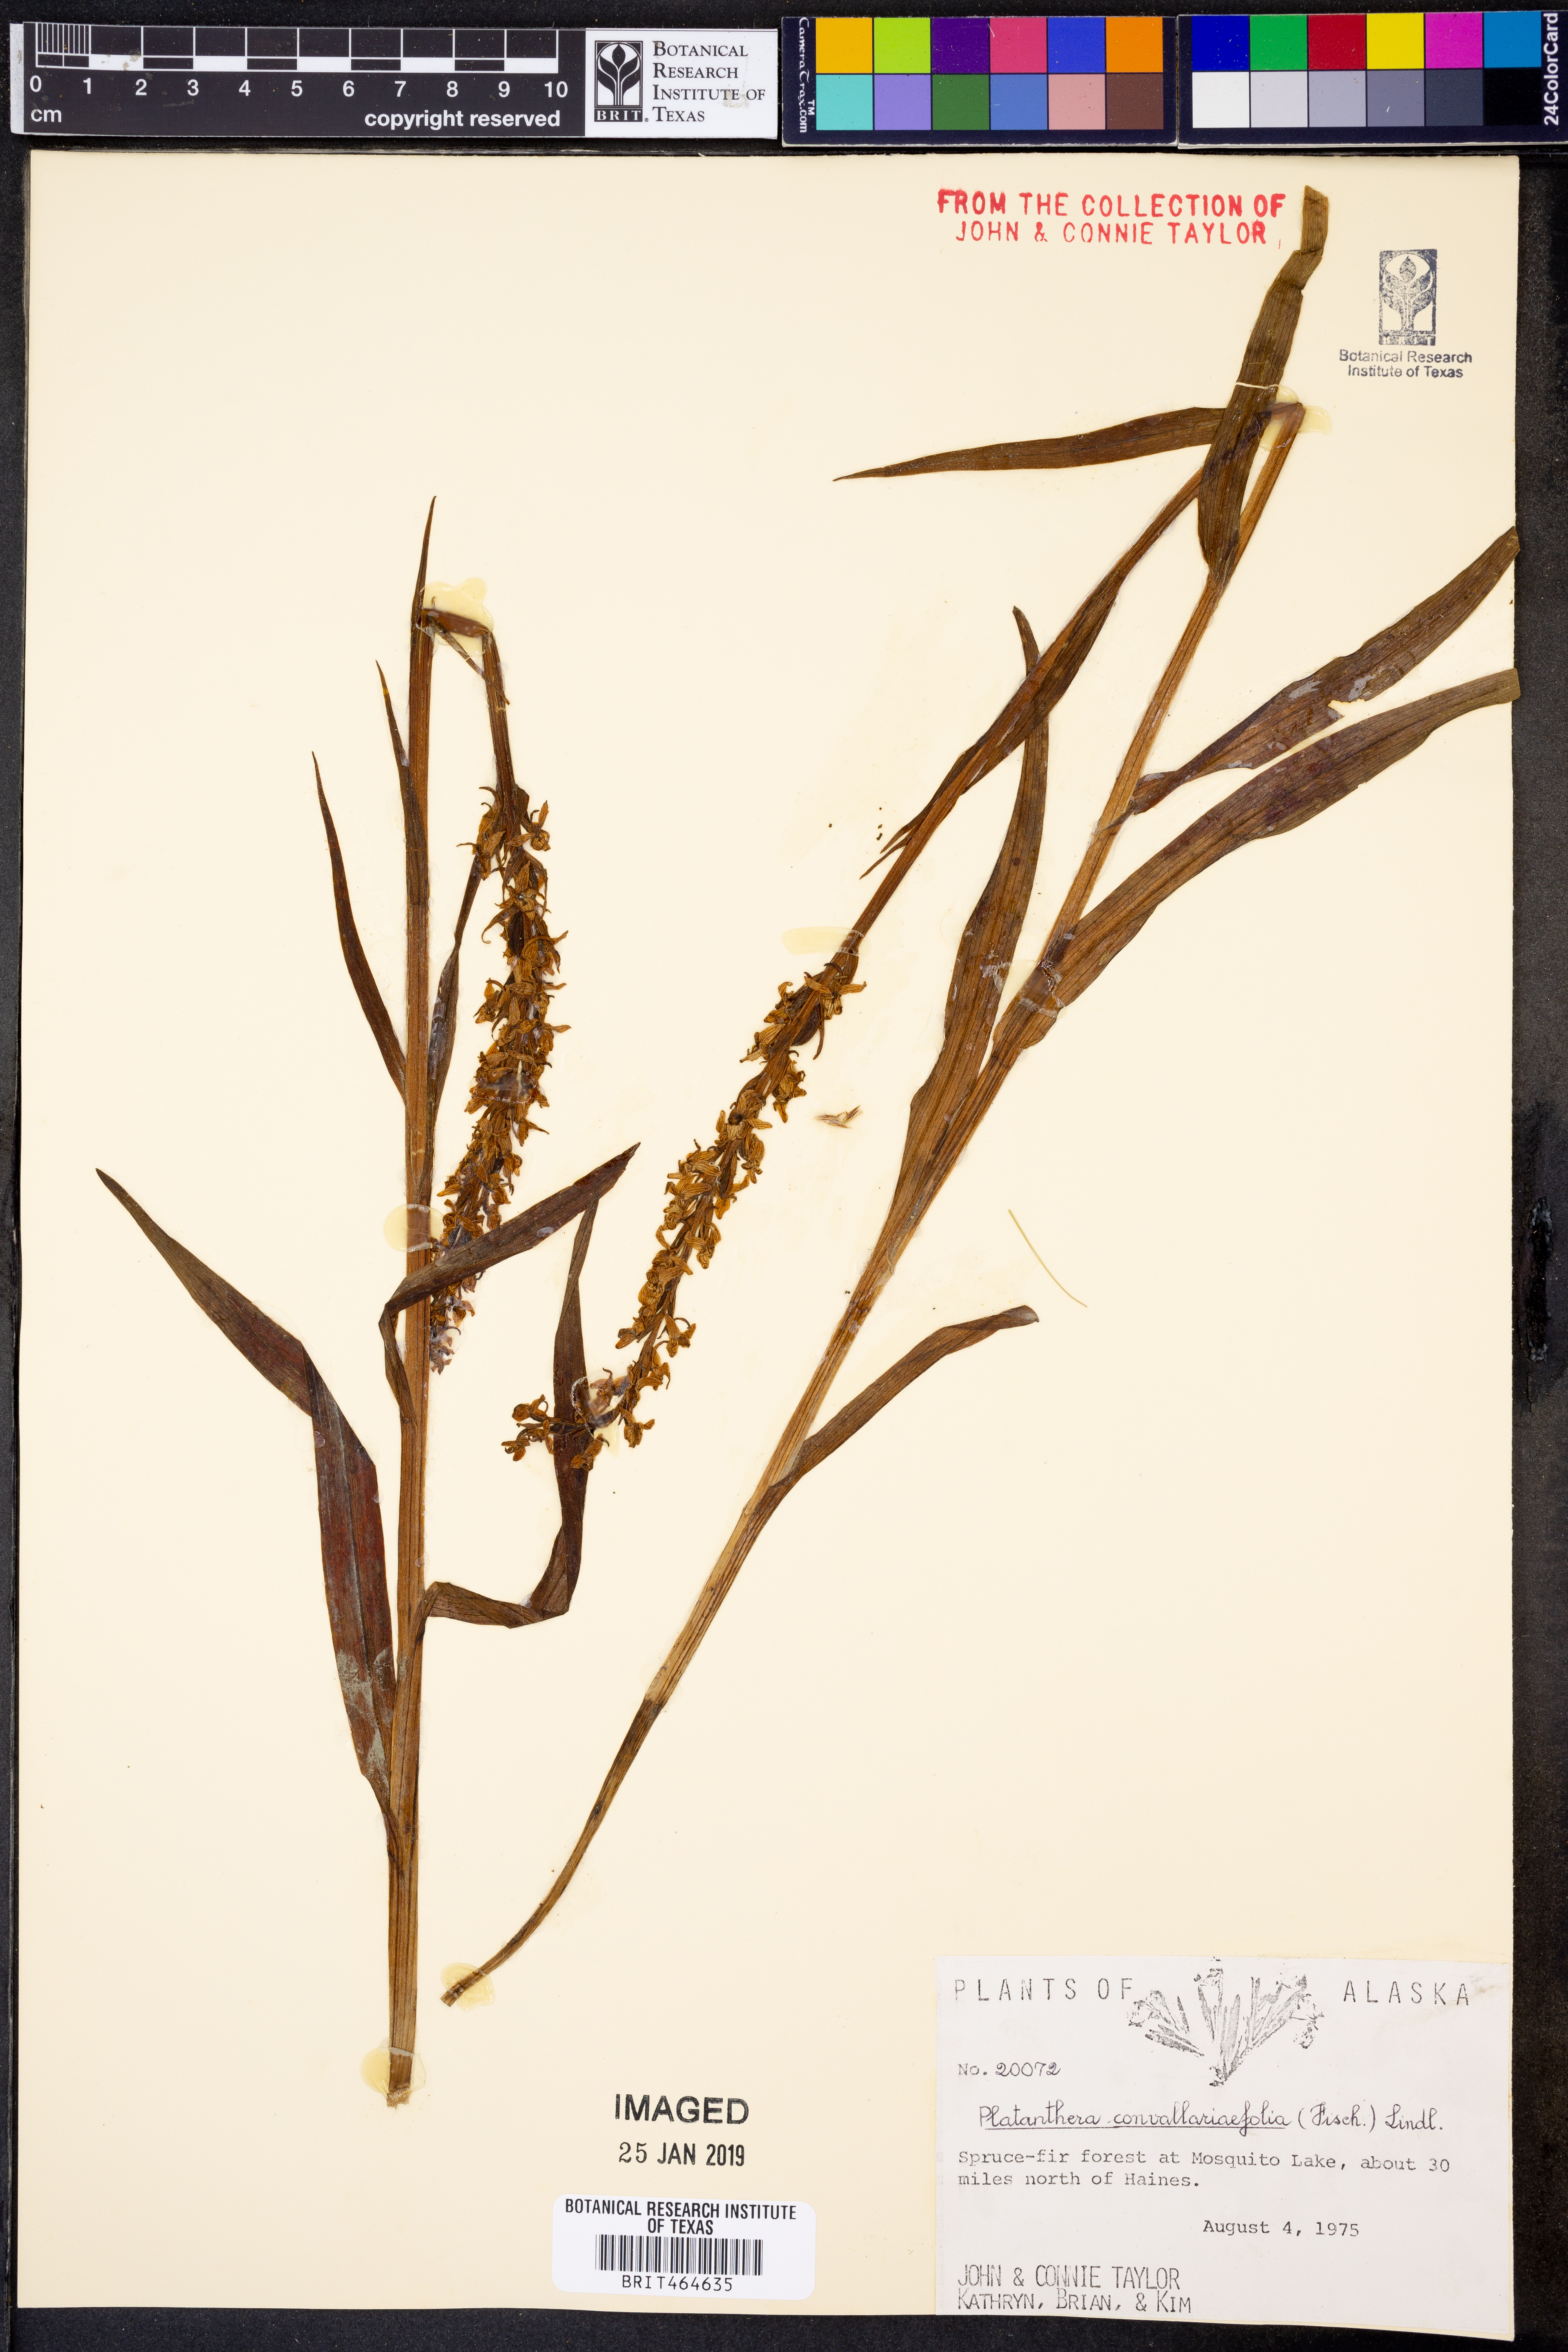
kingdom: Plantae
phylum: Tracheophyta
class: Liliopsida
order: Asparagales
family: Orchidaceae
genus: Platanthera
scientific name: Platanthera convallariifolia
